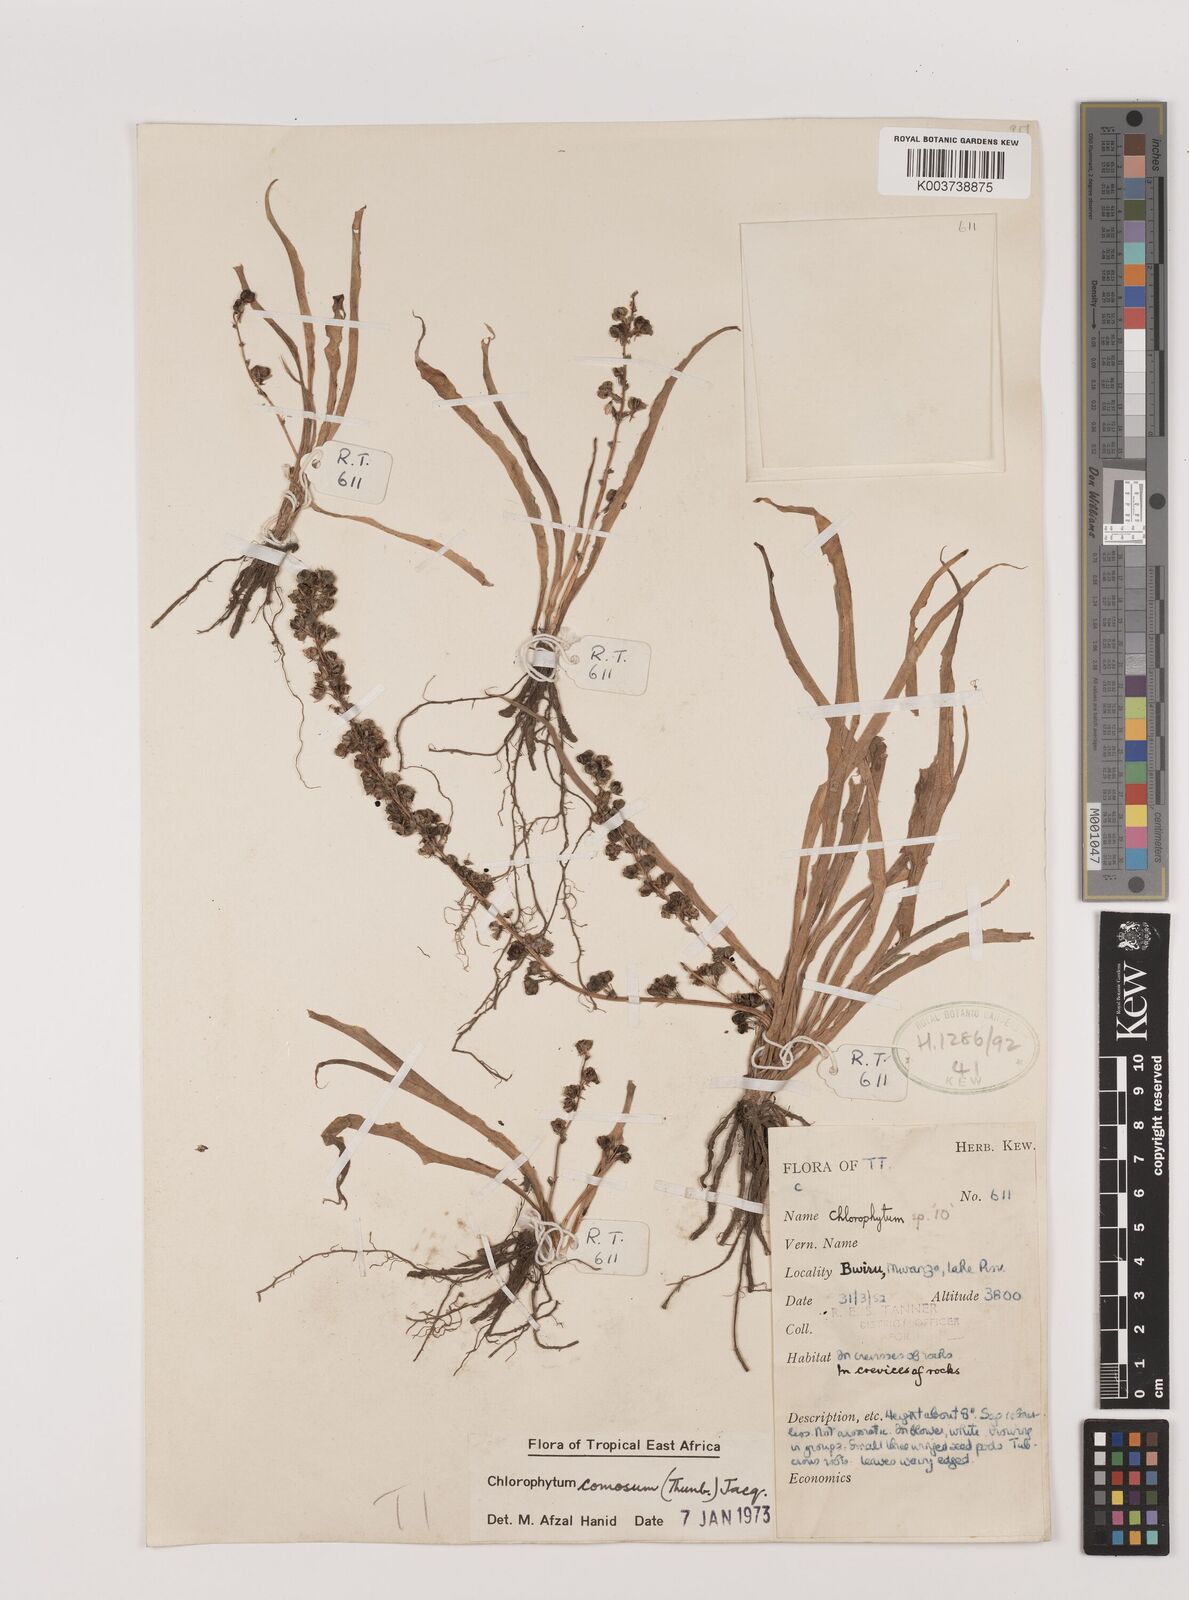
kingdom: Plantae
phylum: Tracheophyta
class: Liliopsida
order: Asparagales
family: Asparagaceae
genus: Chlorophytum
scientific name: Chlorophytum comosum
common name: Spider plant
